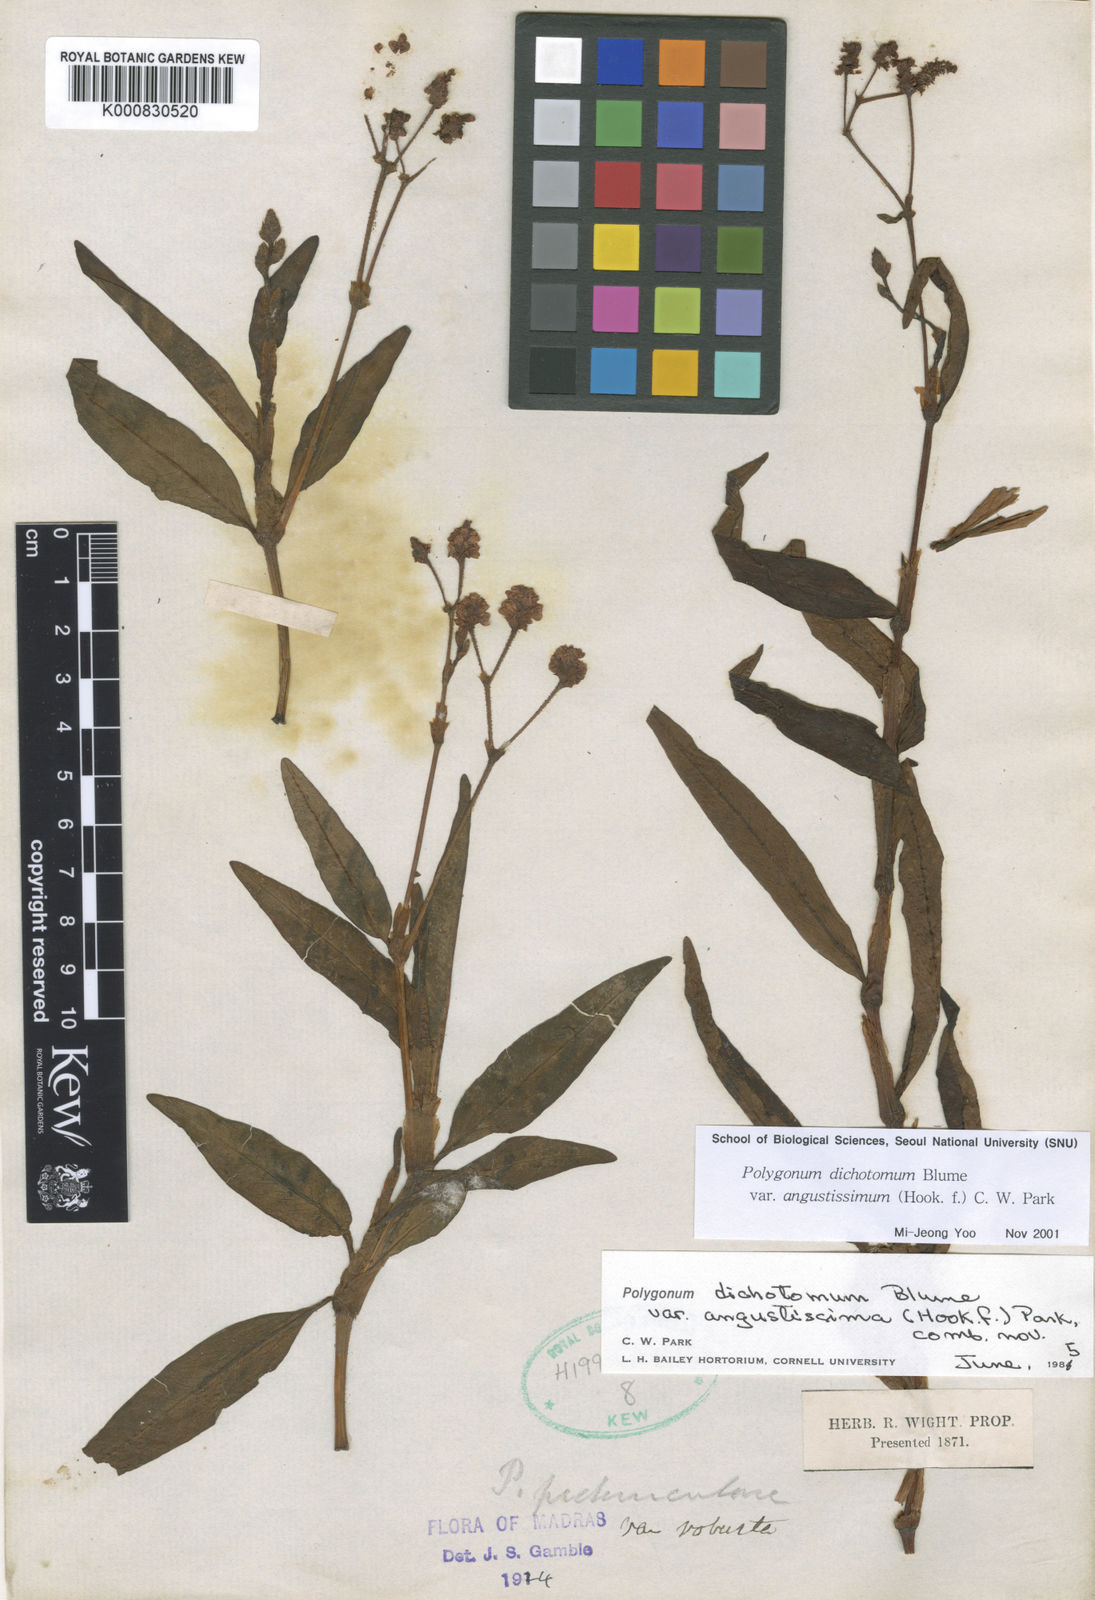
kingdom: Plantae
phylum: Tracheophyta
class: Magnoliopsida
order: Caryophyllales
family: Polygonaceae
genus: Persicaria
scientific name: Persicaria dichotoma
